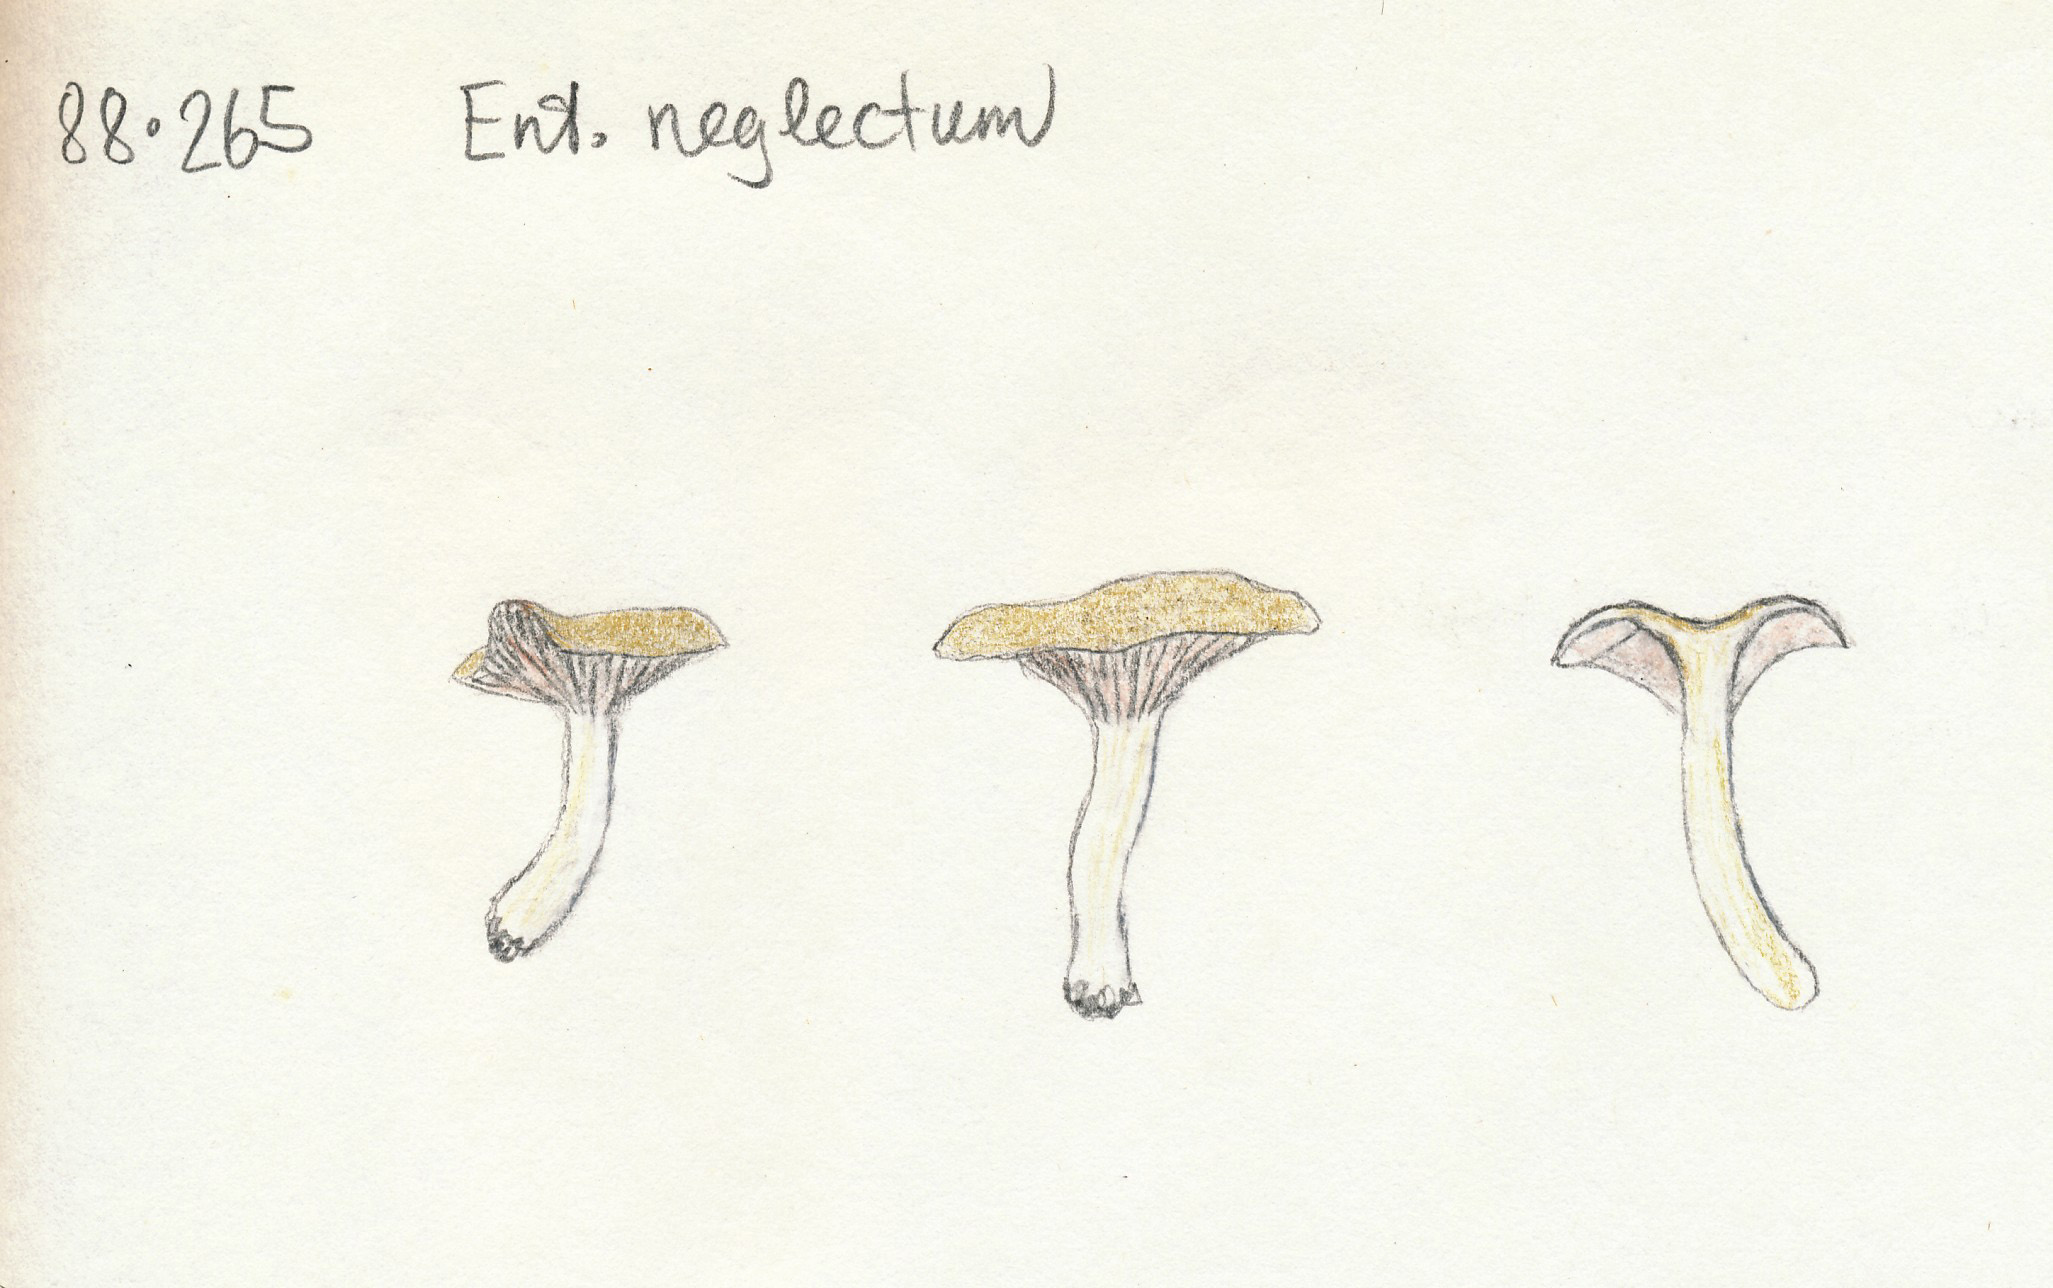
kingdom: Fungi
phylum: Basidiomycota
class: Agaricomycetes
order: Agaricales
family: Entolomataceae
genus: Entoloma
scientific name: Entoloma neglectum
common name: bleg rødblad
